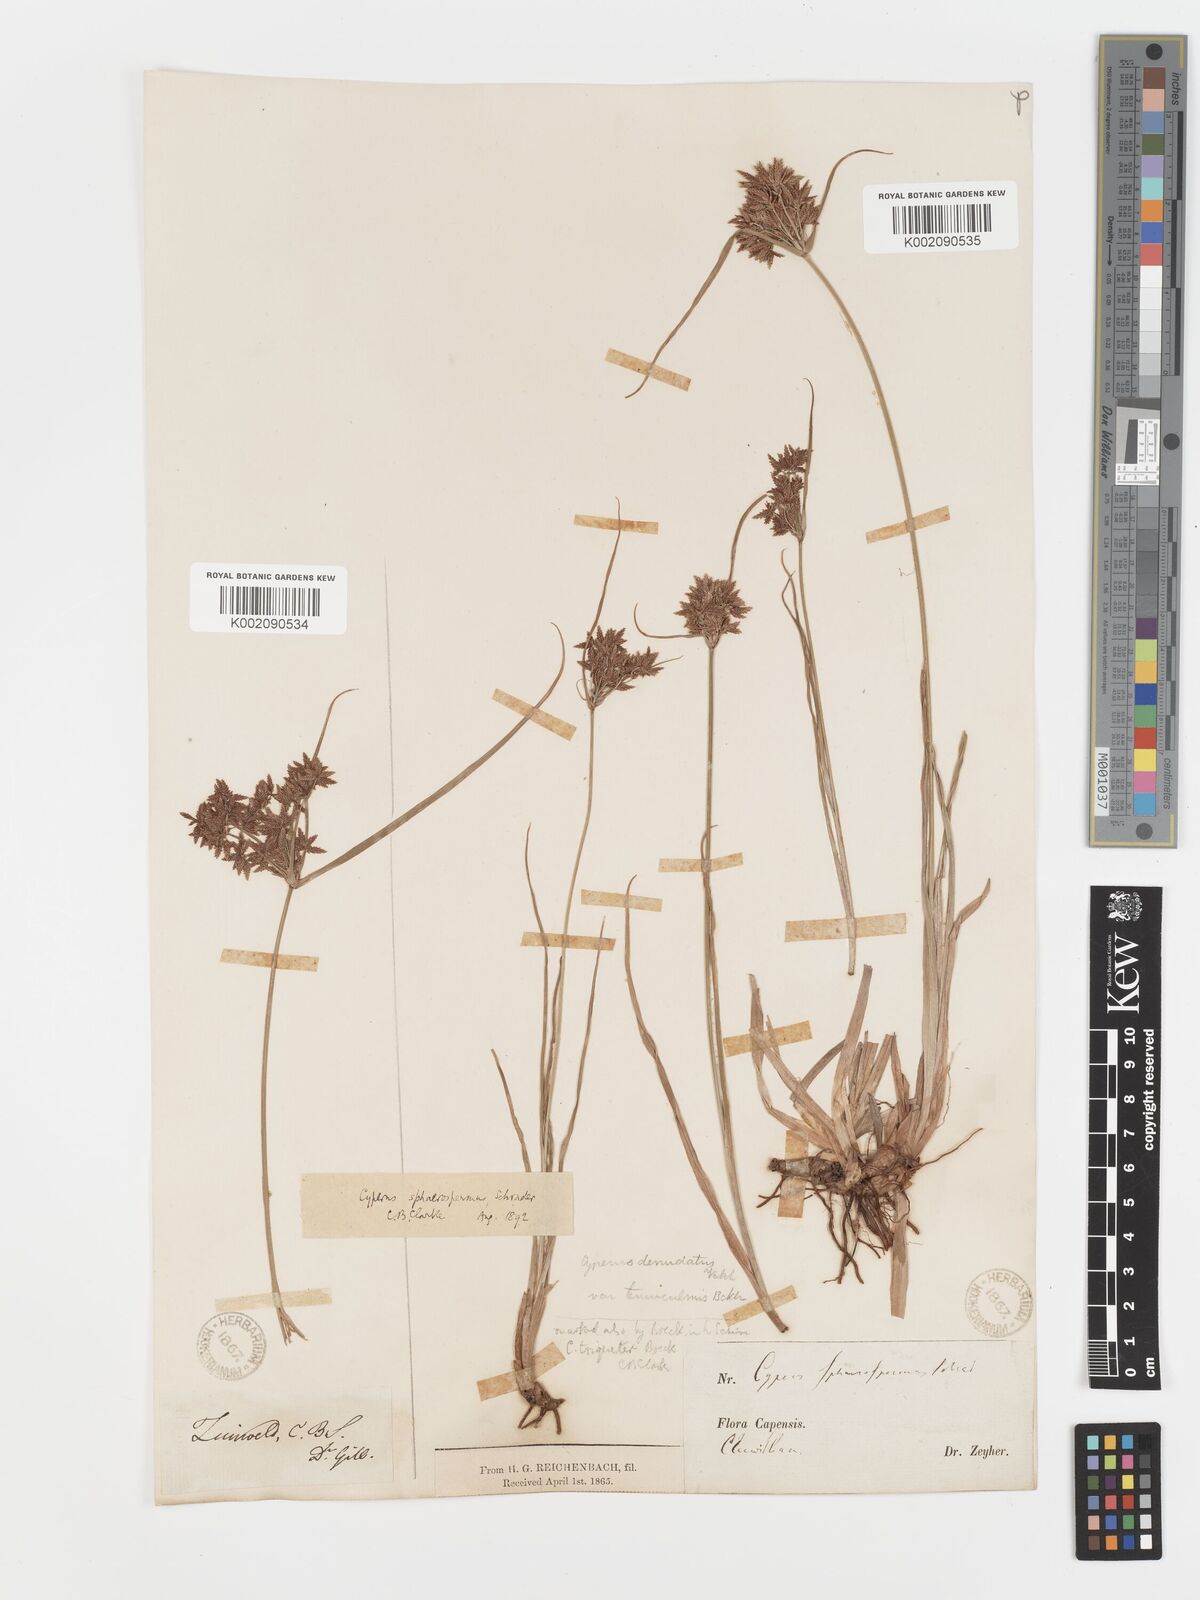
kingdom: Plantae
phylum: Tracheophyta
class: Liliopsida
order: Poales
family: Cyperaceae
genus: Cyperus
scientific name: Cyperus sphaerospermus
